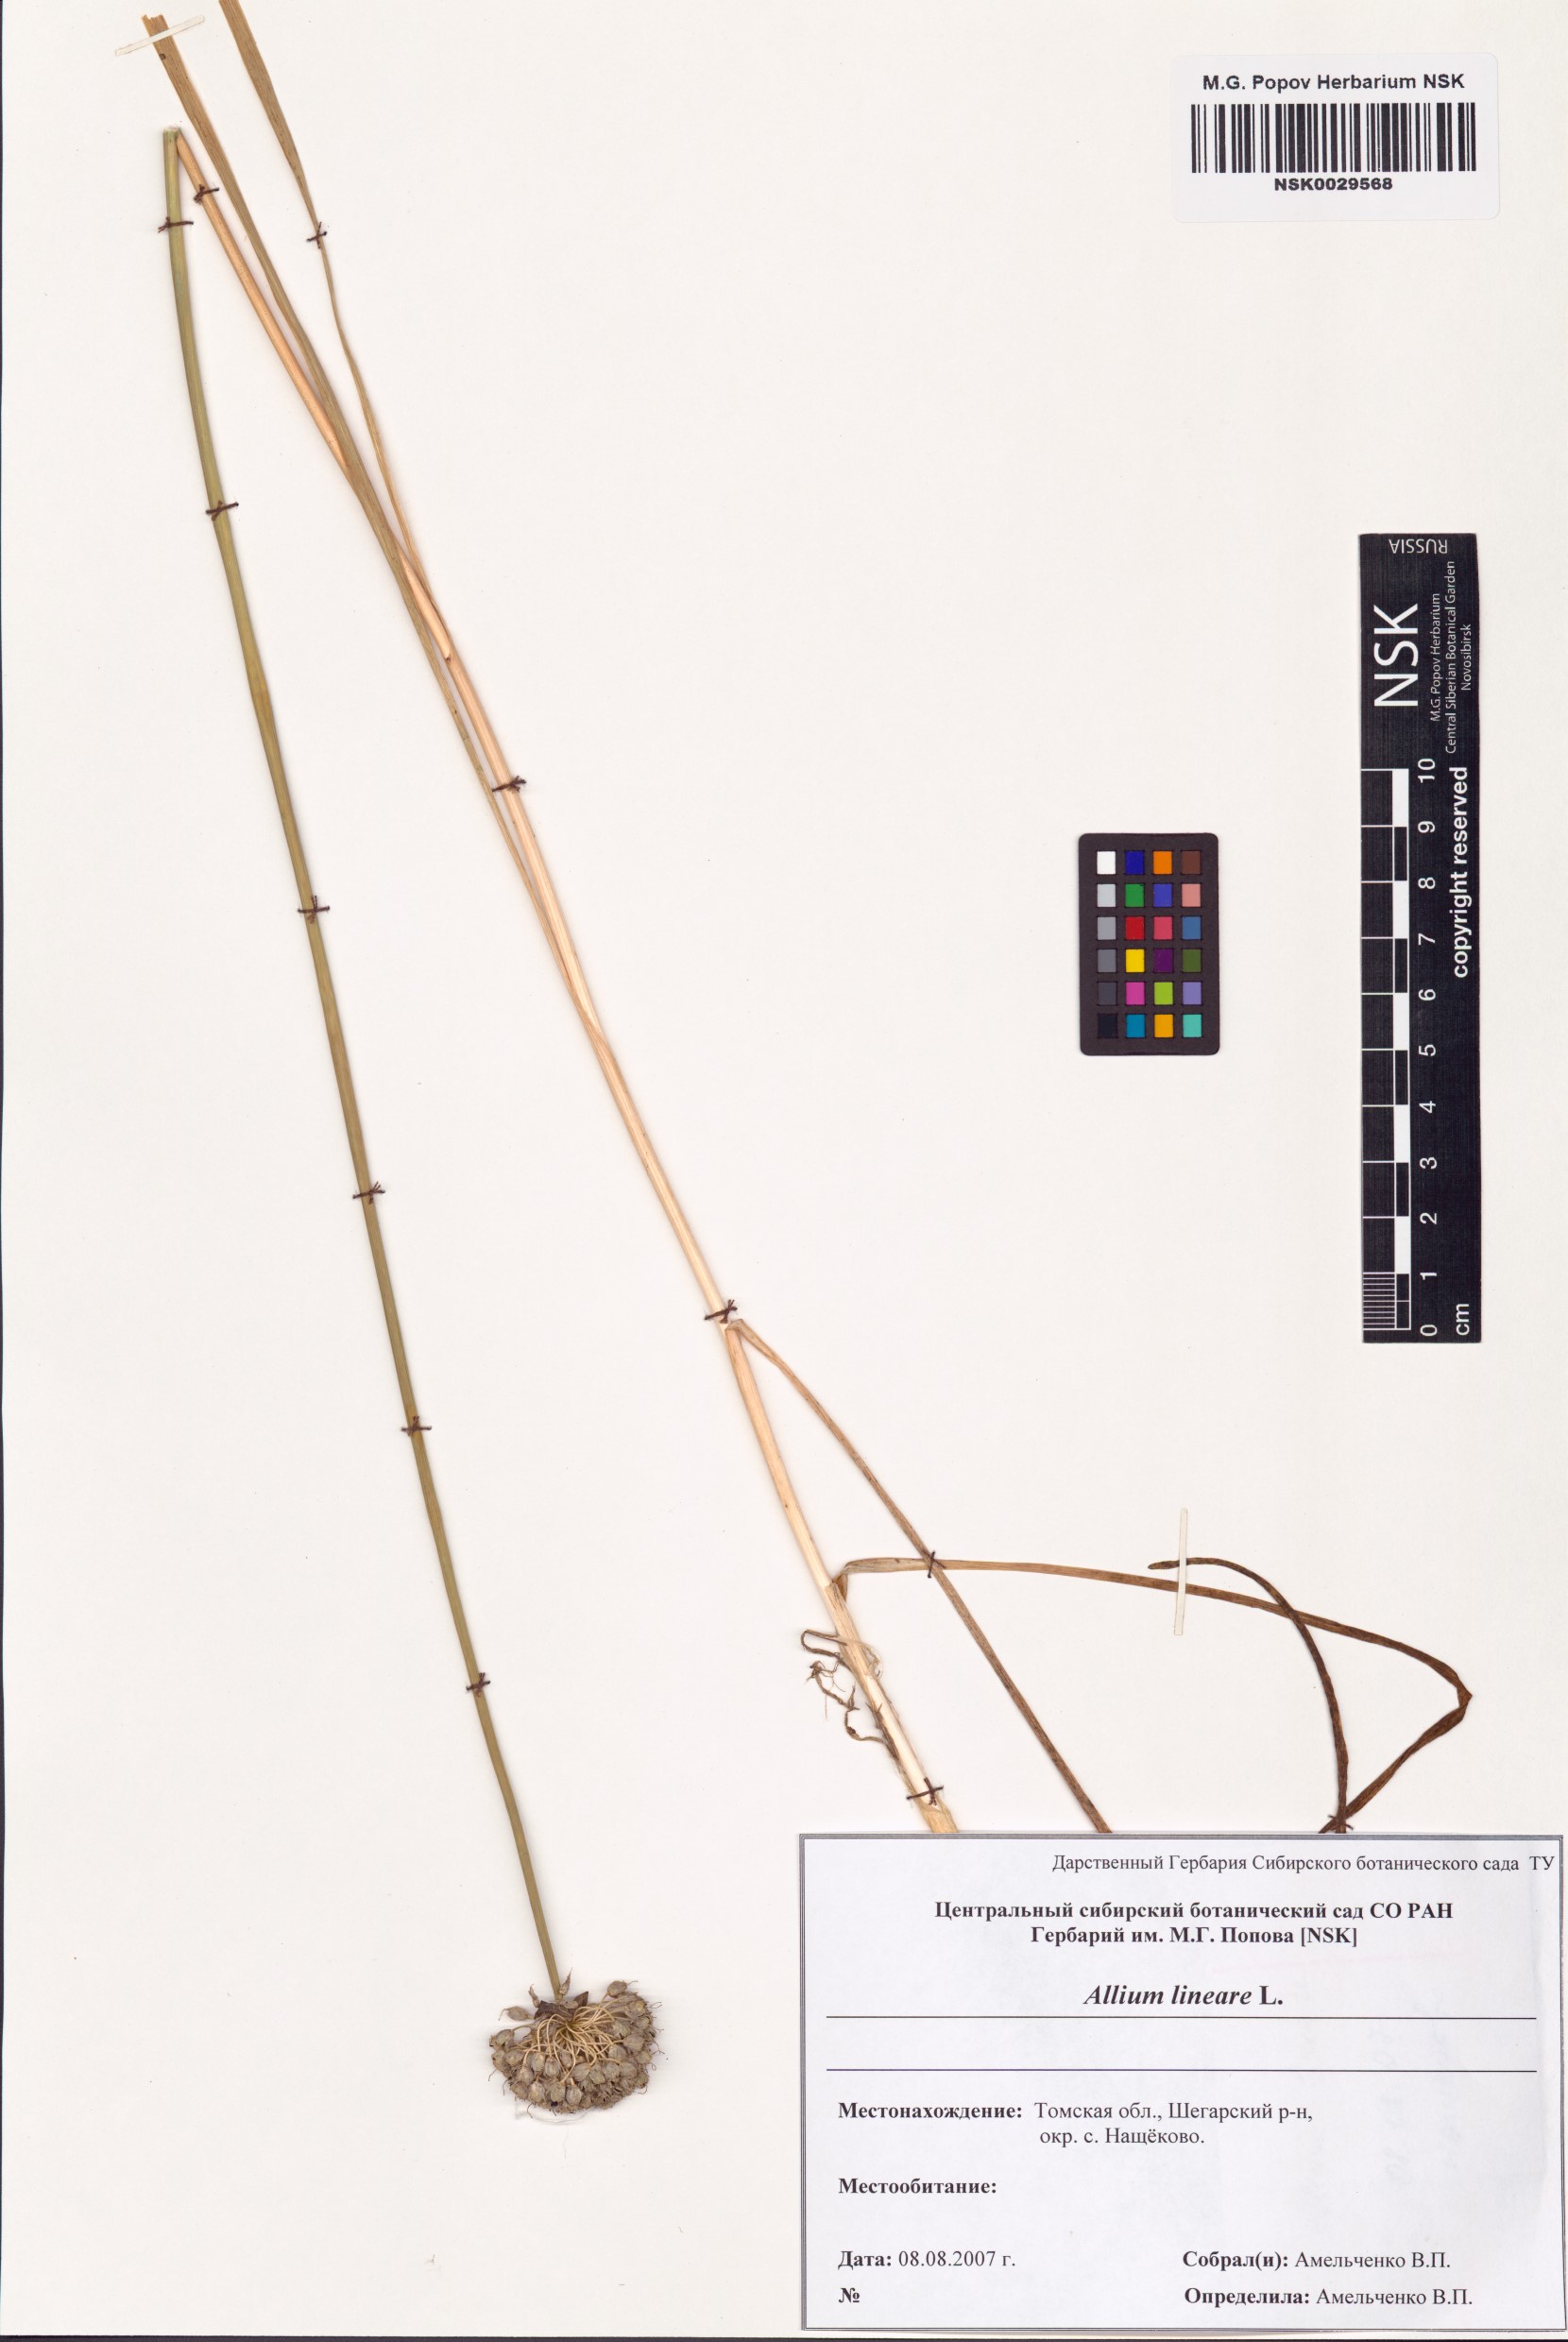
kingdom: Plantae
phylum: Tracheophyta
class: Liliopsida
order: Asparagales
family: Amaryllidaceae
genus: Allium
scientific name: Allium lineare
